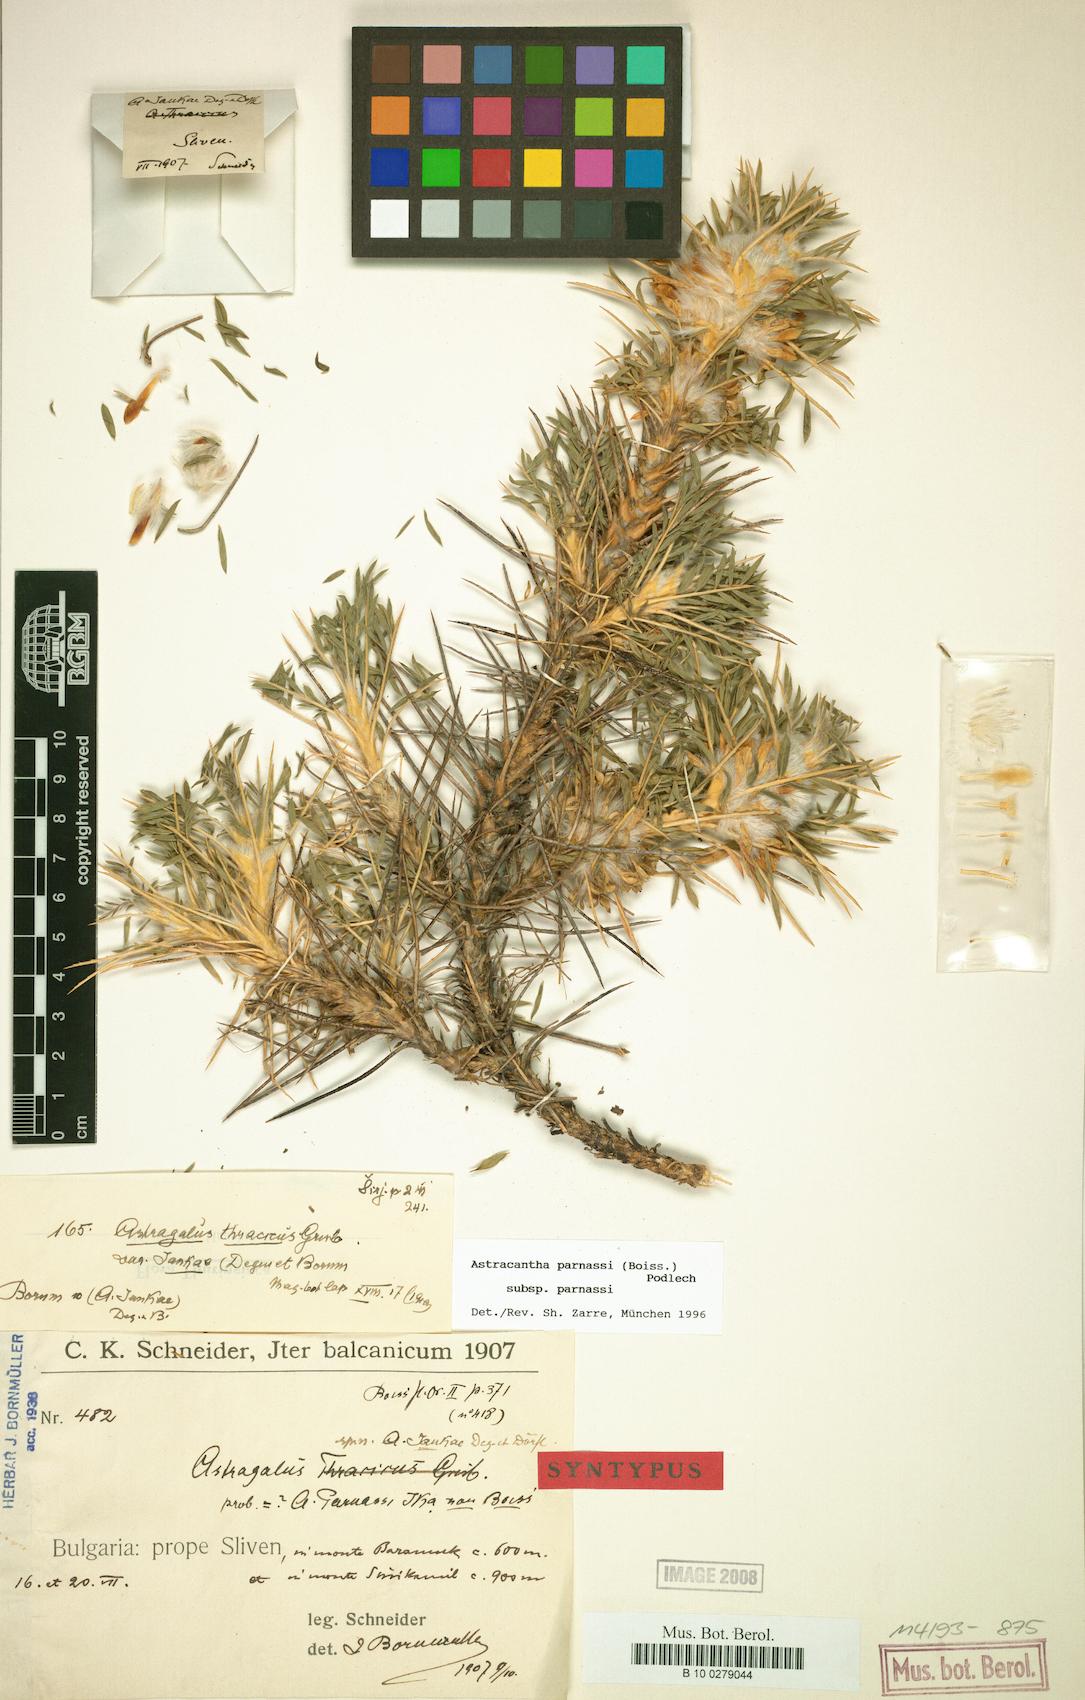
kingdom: Plantae
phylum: Tracheophyta
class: Magnoliopsida
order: Fabales
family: Fabaceae
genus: Astragalus
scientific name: Astragalus parnassi
